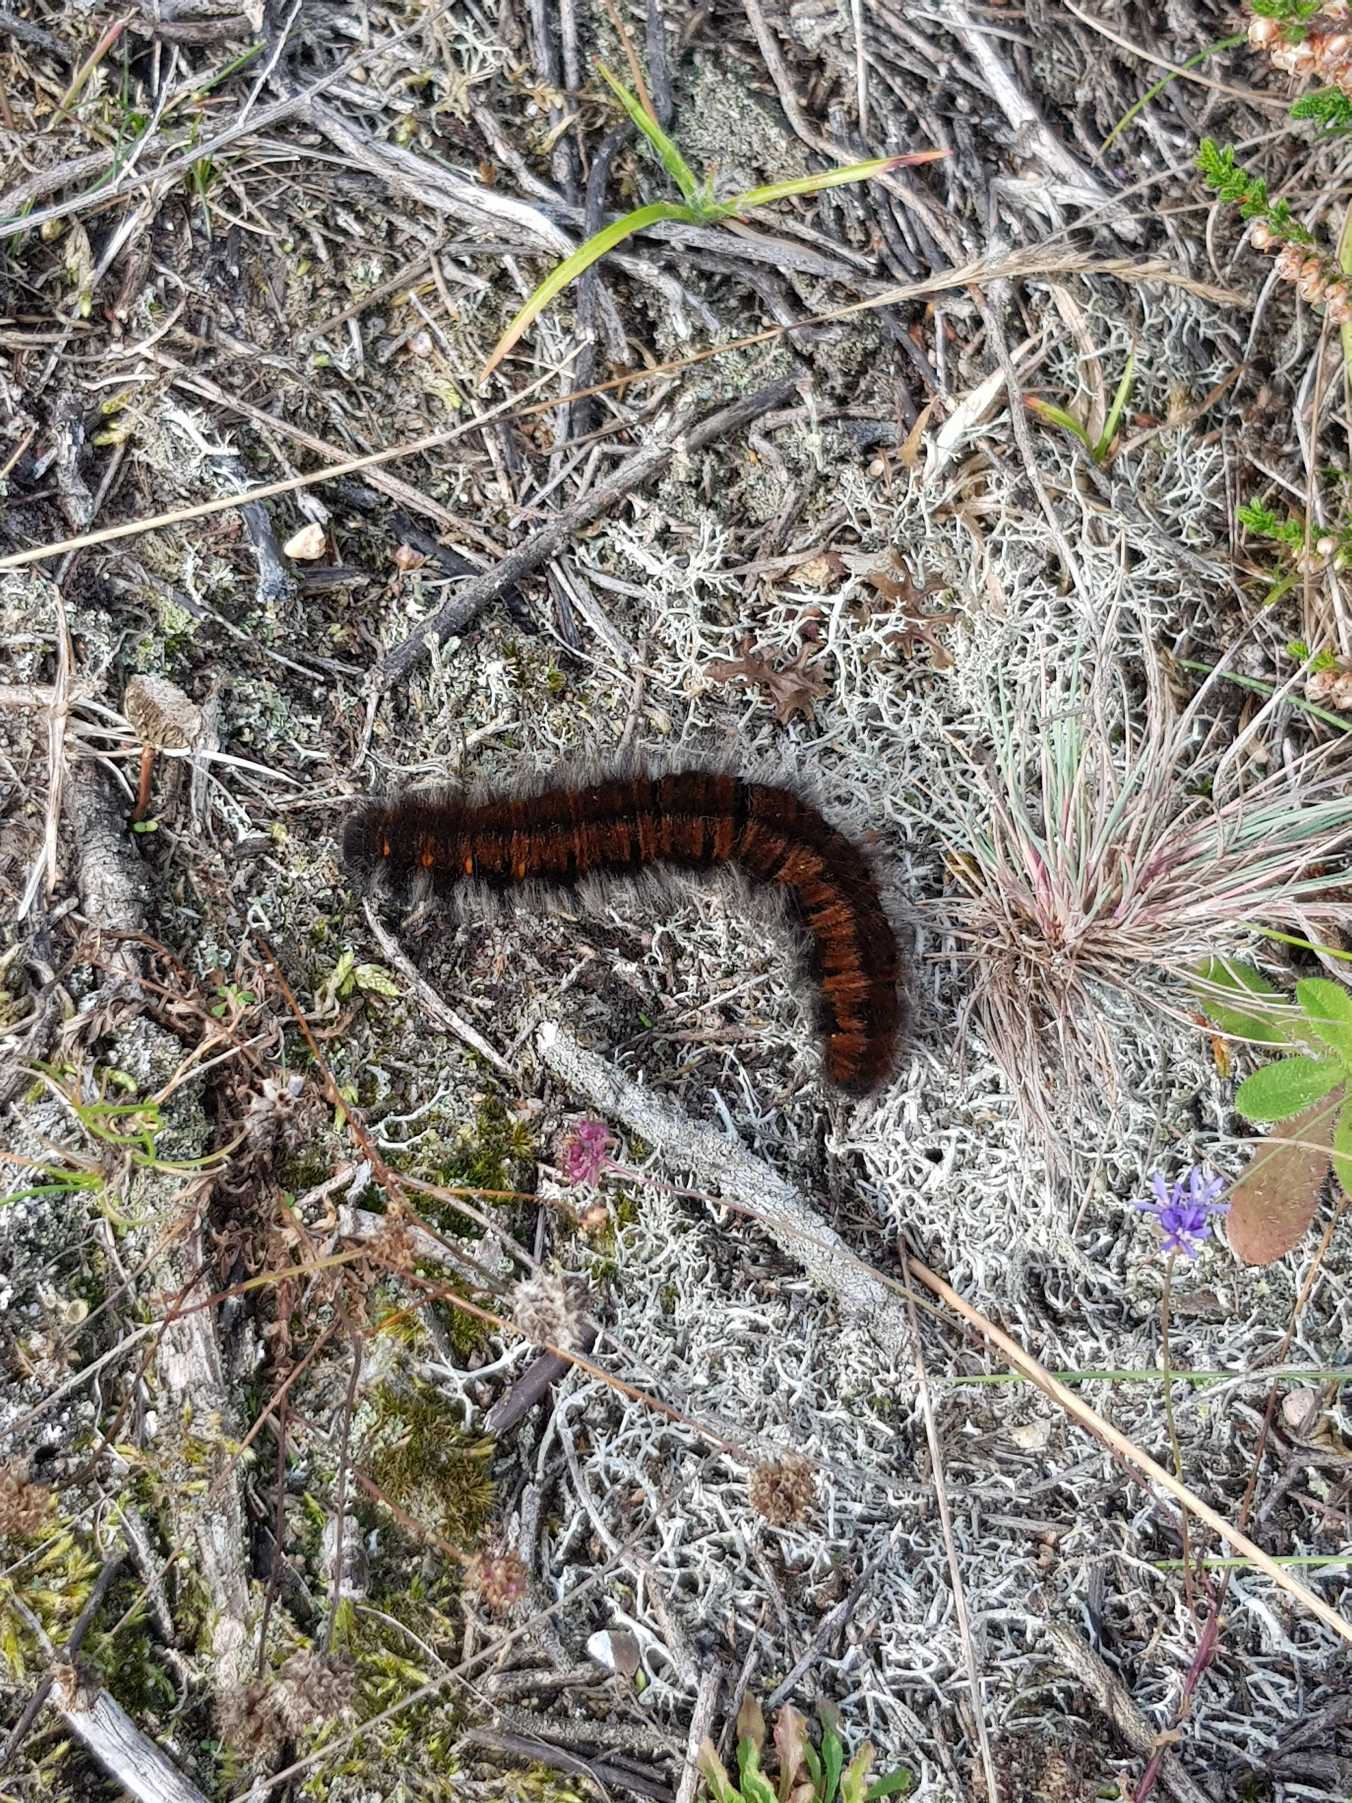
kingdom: Animalia
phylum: Arthropoda
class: Insecta
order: Lepidoptera
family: Lasiocampidae
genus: Macrothylacia
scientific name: Macrothylacia rubi
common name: Brombærspinder
